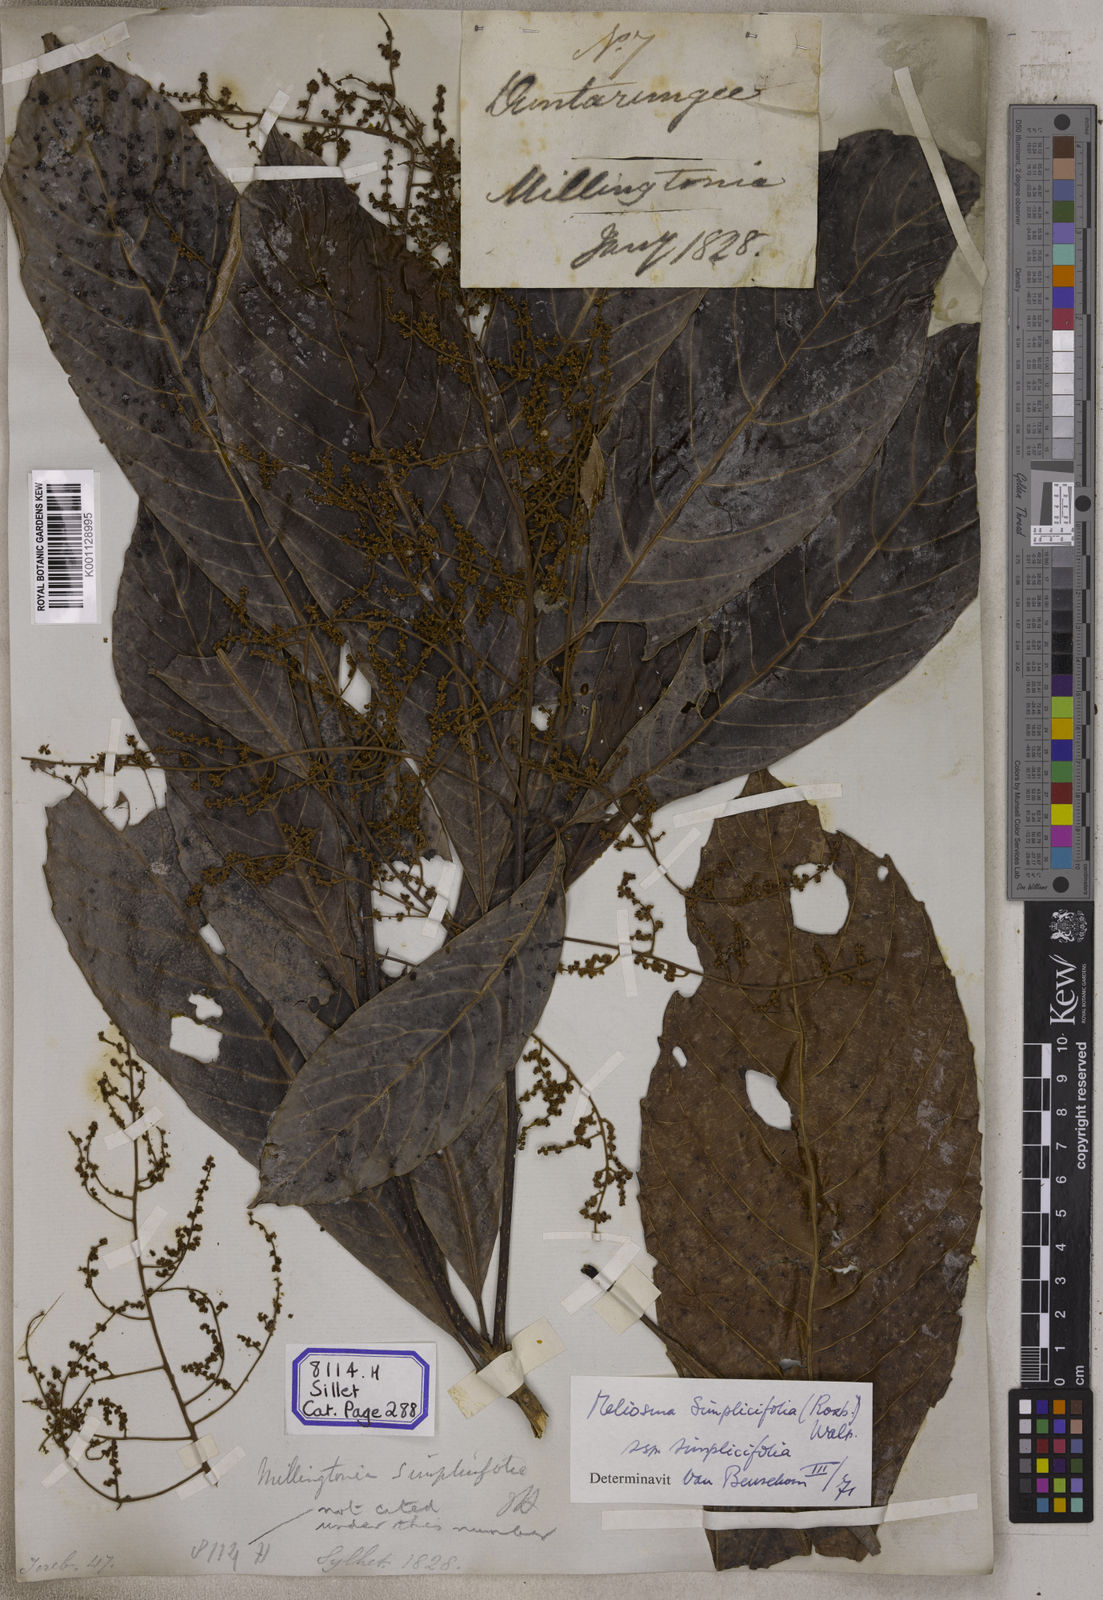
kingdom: Plantae
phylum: Tracheophyta
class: Magnoliopsida
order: Proteales
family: Sabiaceae
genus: Meliosma
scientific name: Meliosma simplicifolia
